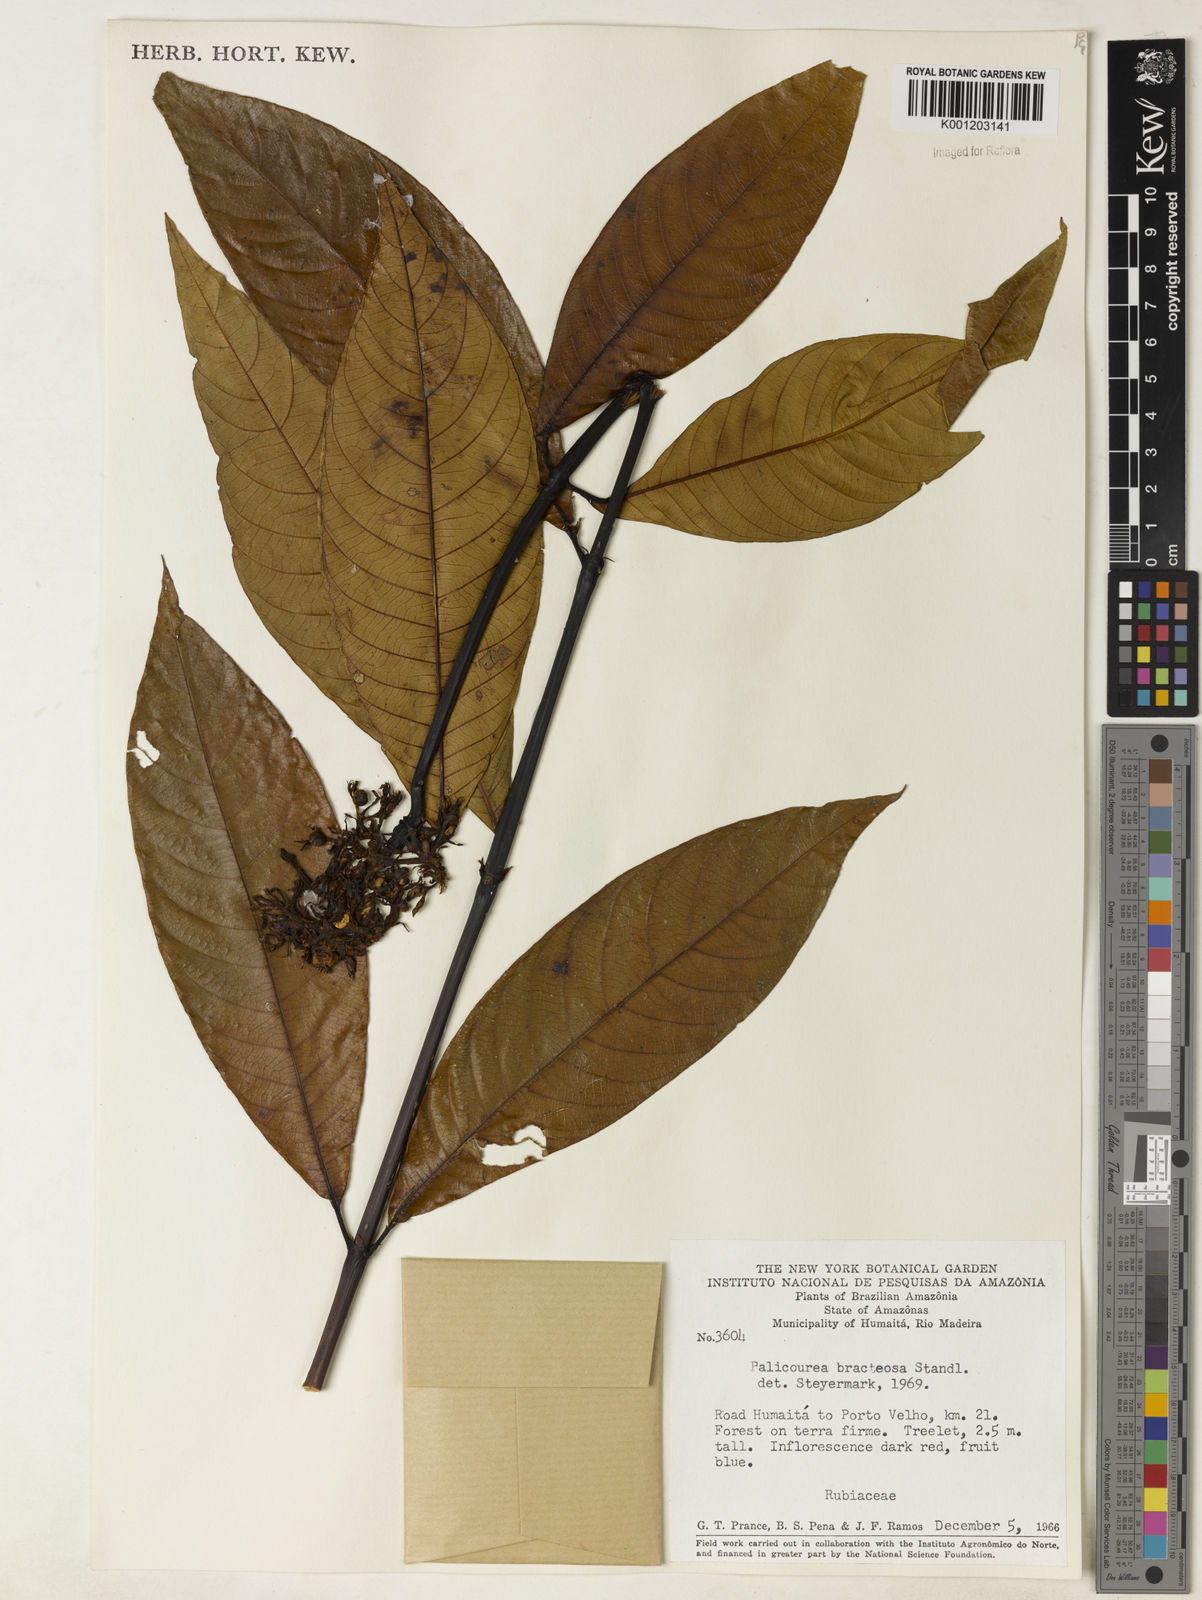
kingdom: Plantae
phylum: Tracheophyta
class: Magnoliopsida
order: Gentianales
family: Rubiaceae
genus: Palicourea
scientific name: Palicourea bracteosa
